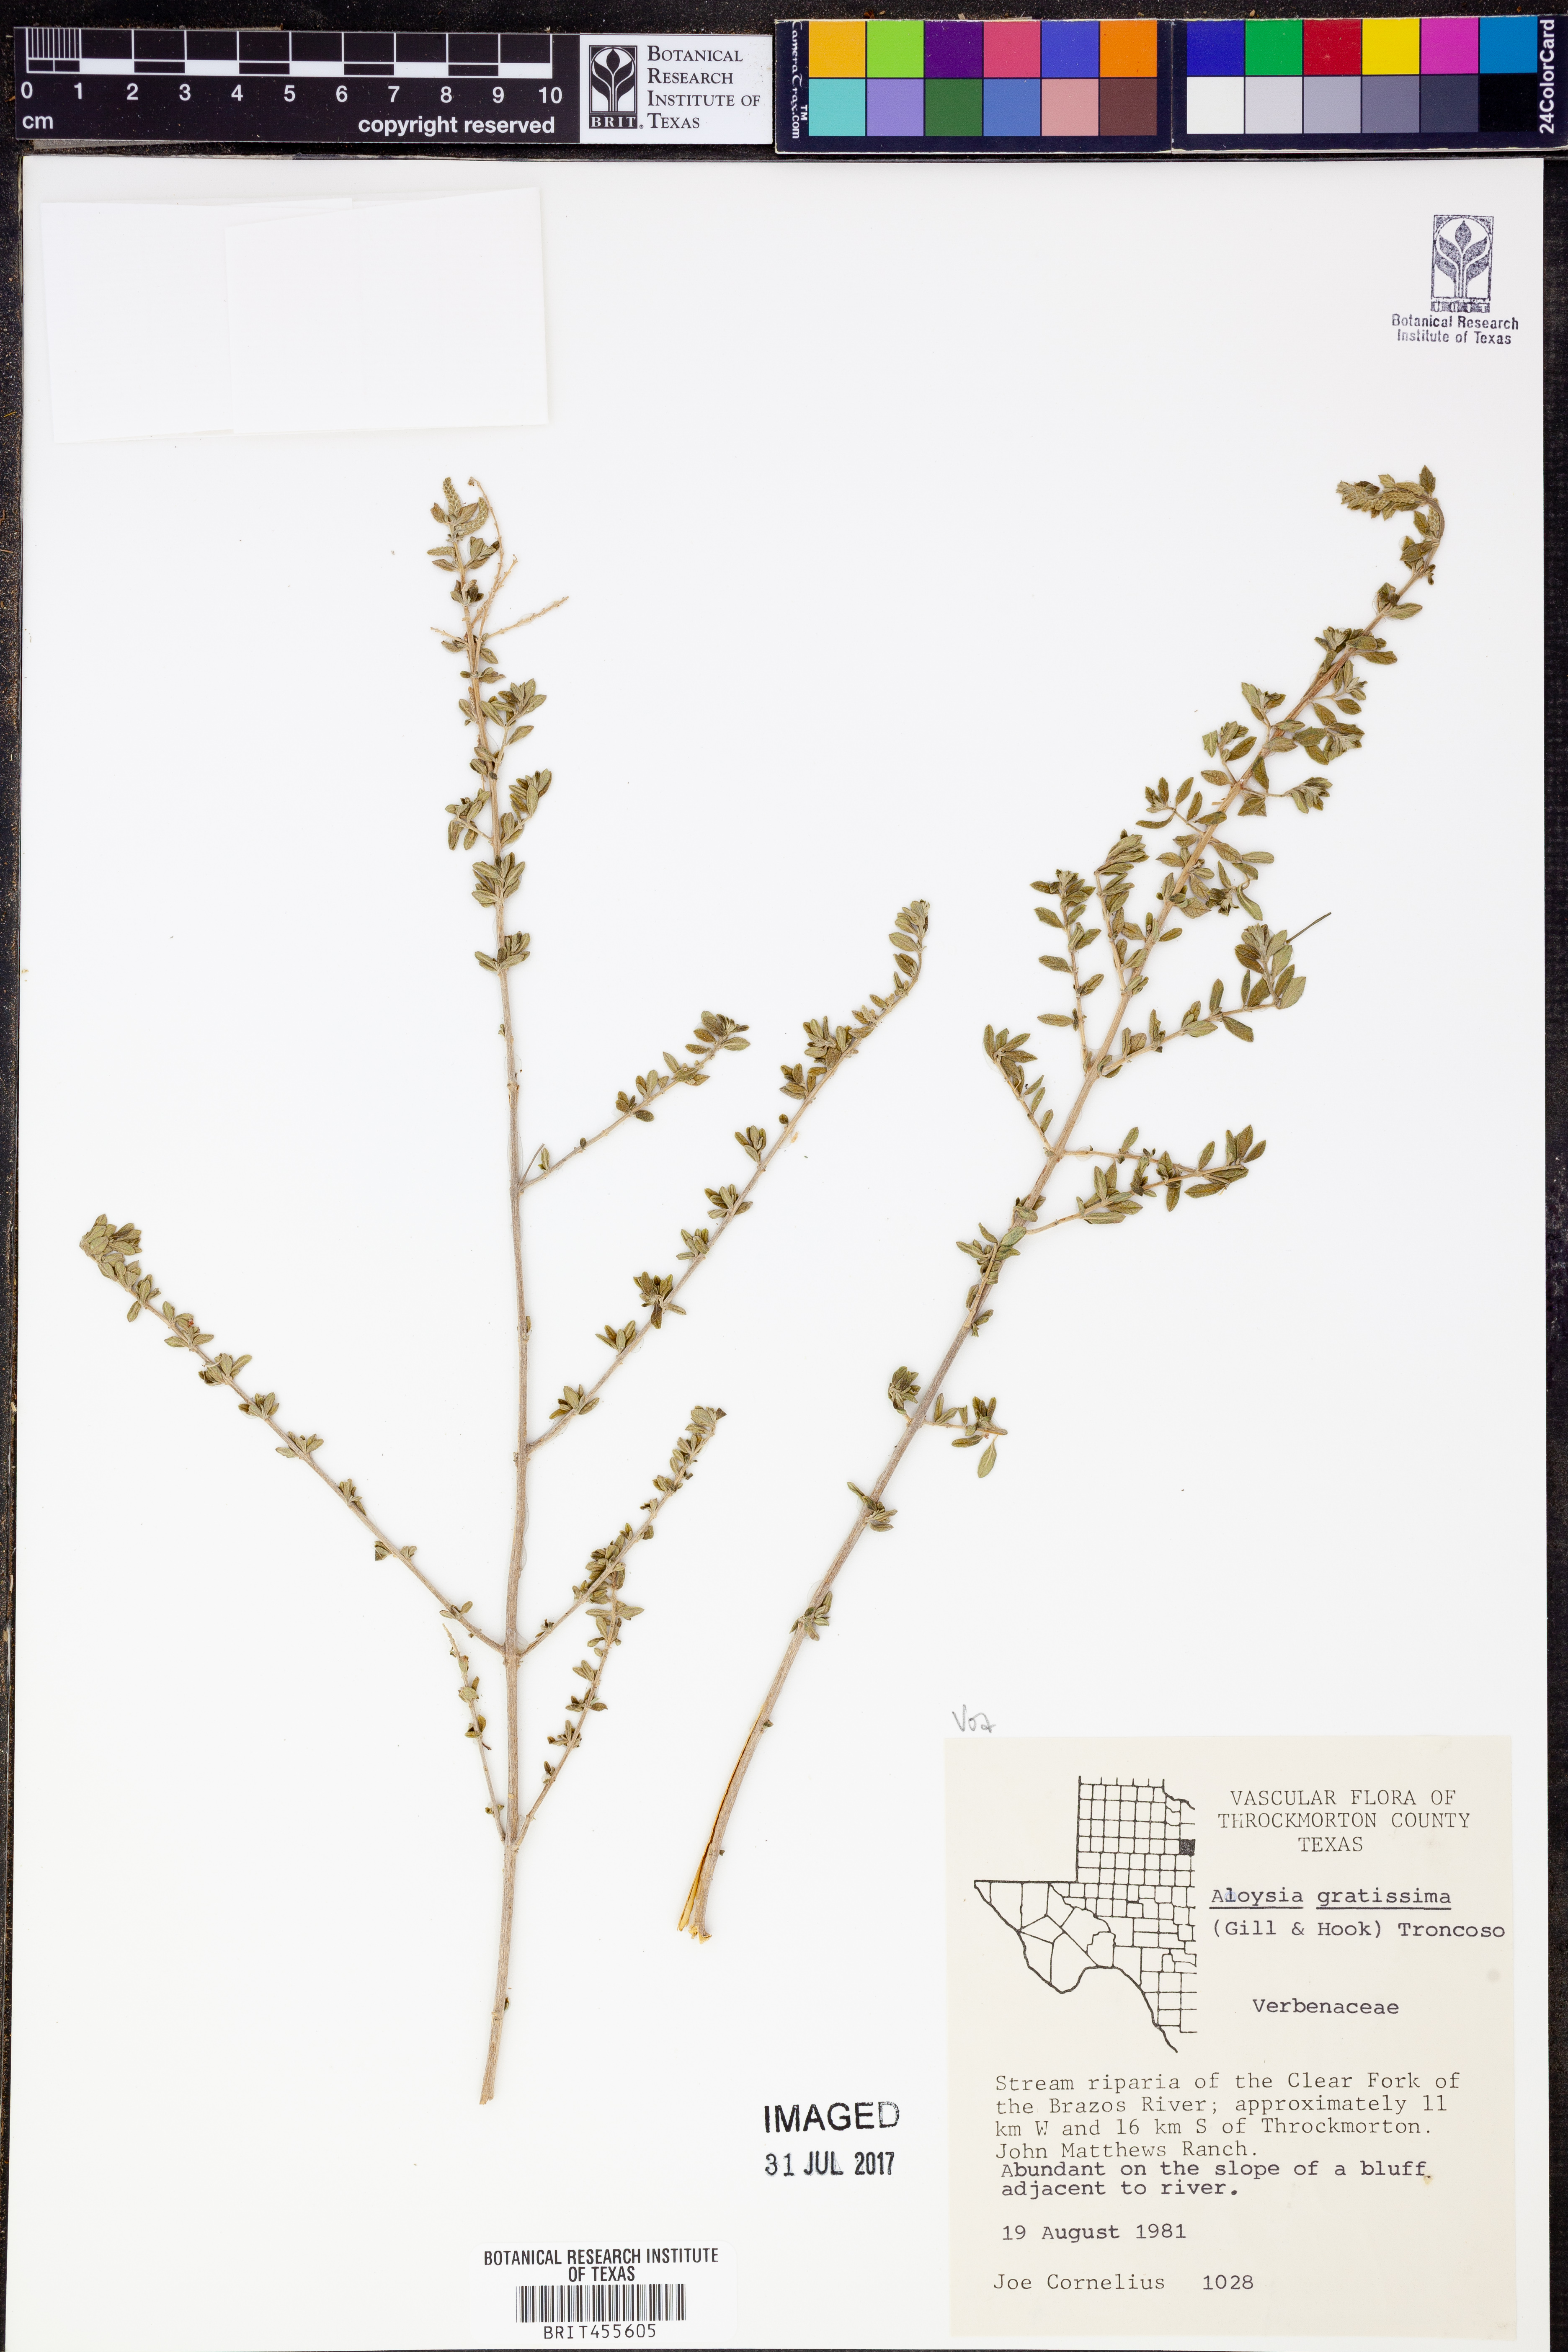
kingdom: Plantae
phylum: Tracheophyta
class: Magnoliopsida
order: Lamiales
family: Verbenaceae
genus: Aloysia
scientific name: Aloysia gratissima
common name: Common bee-brush
